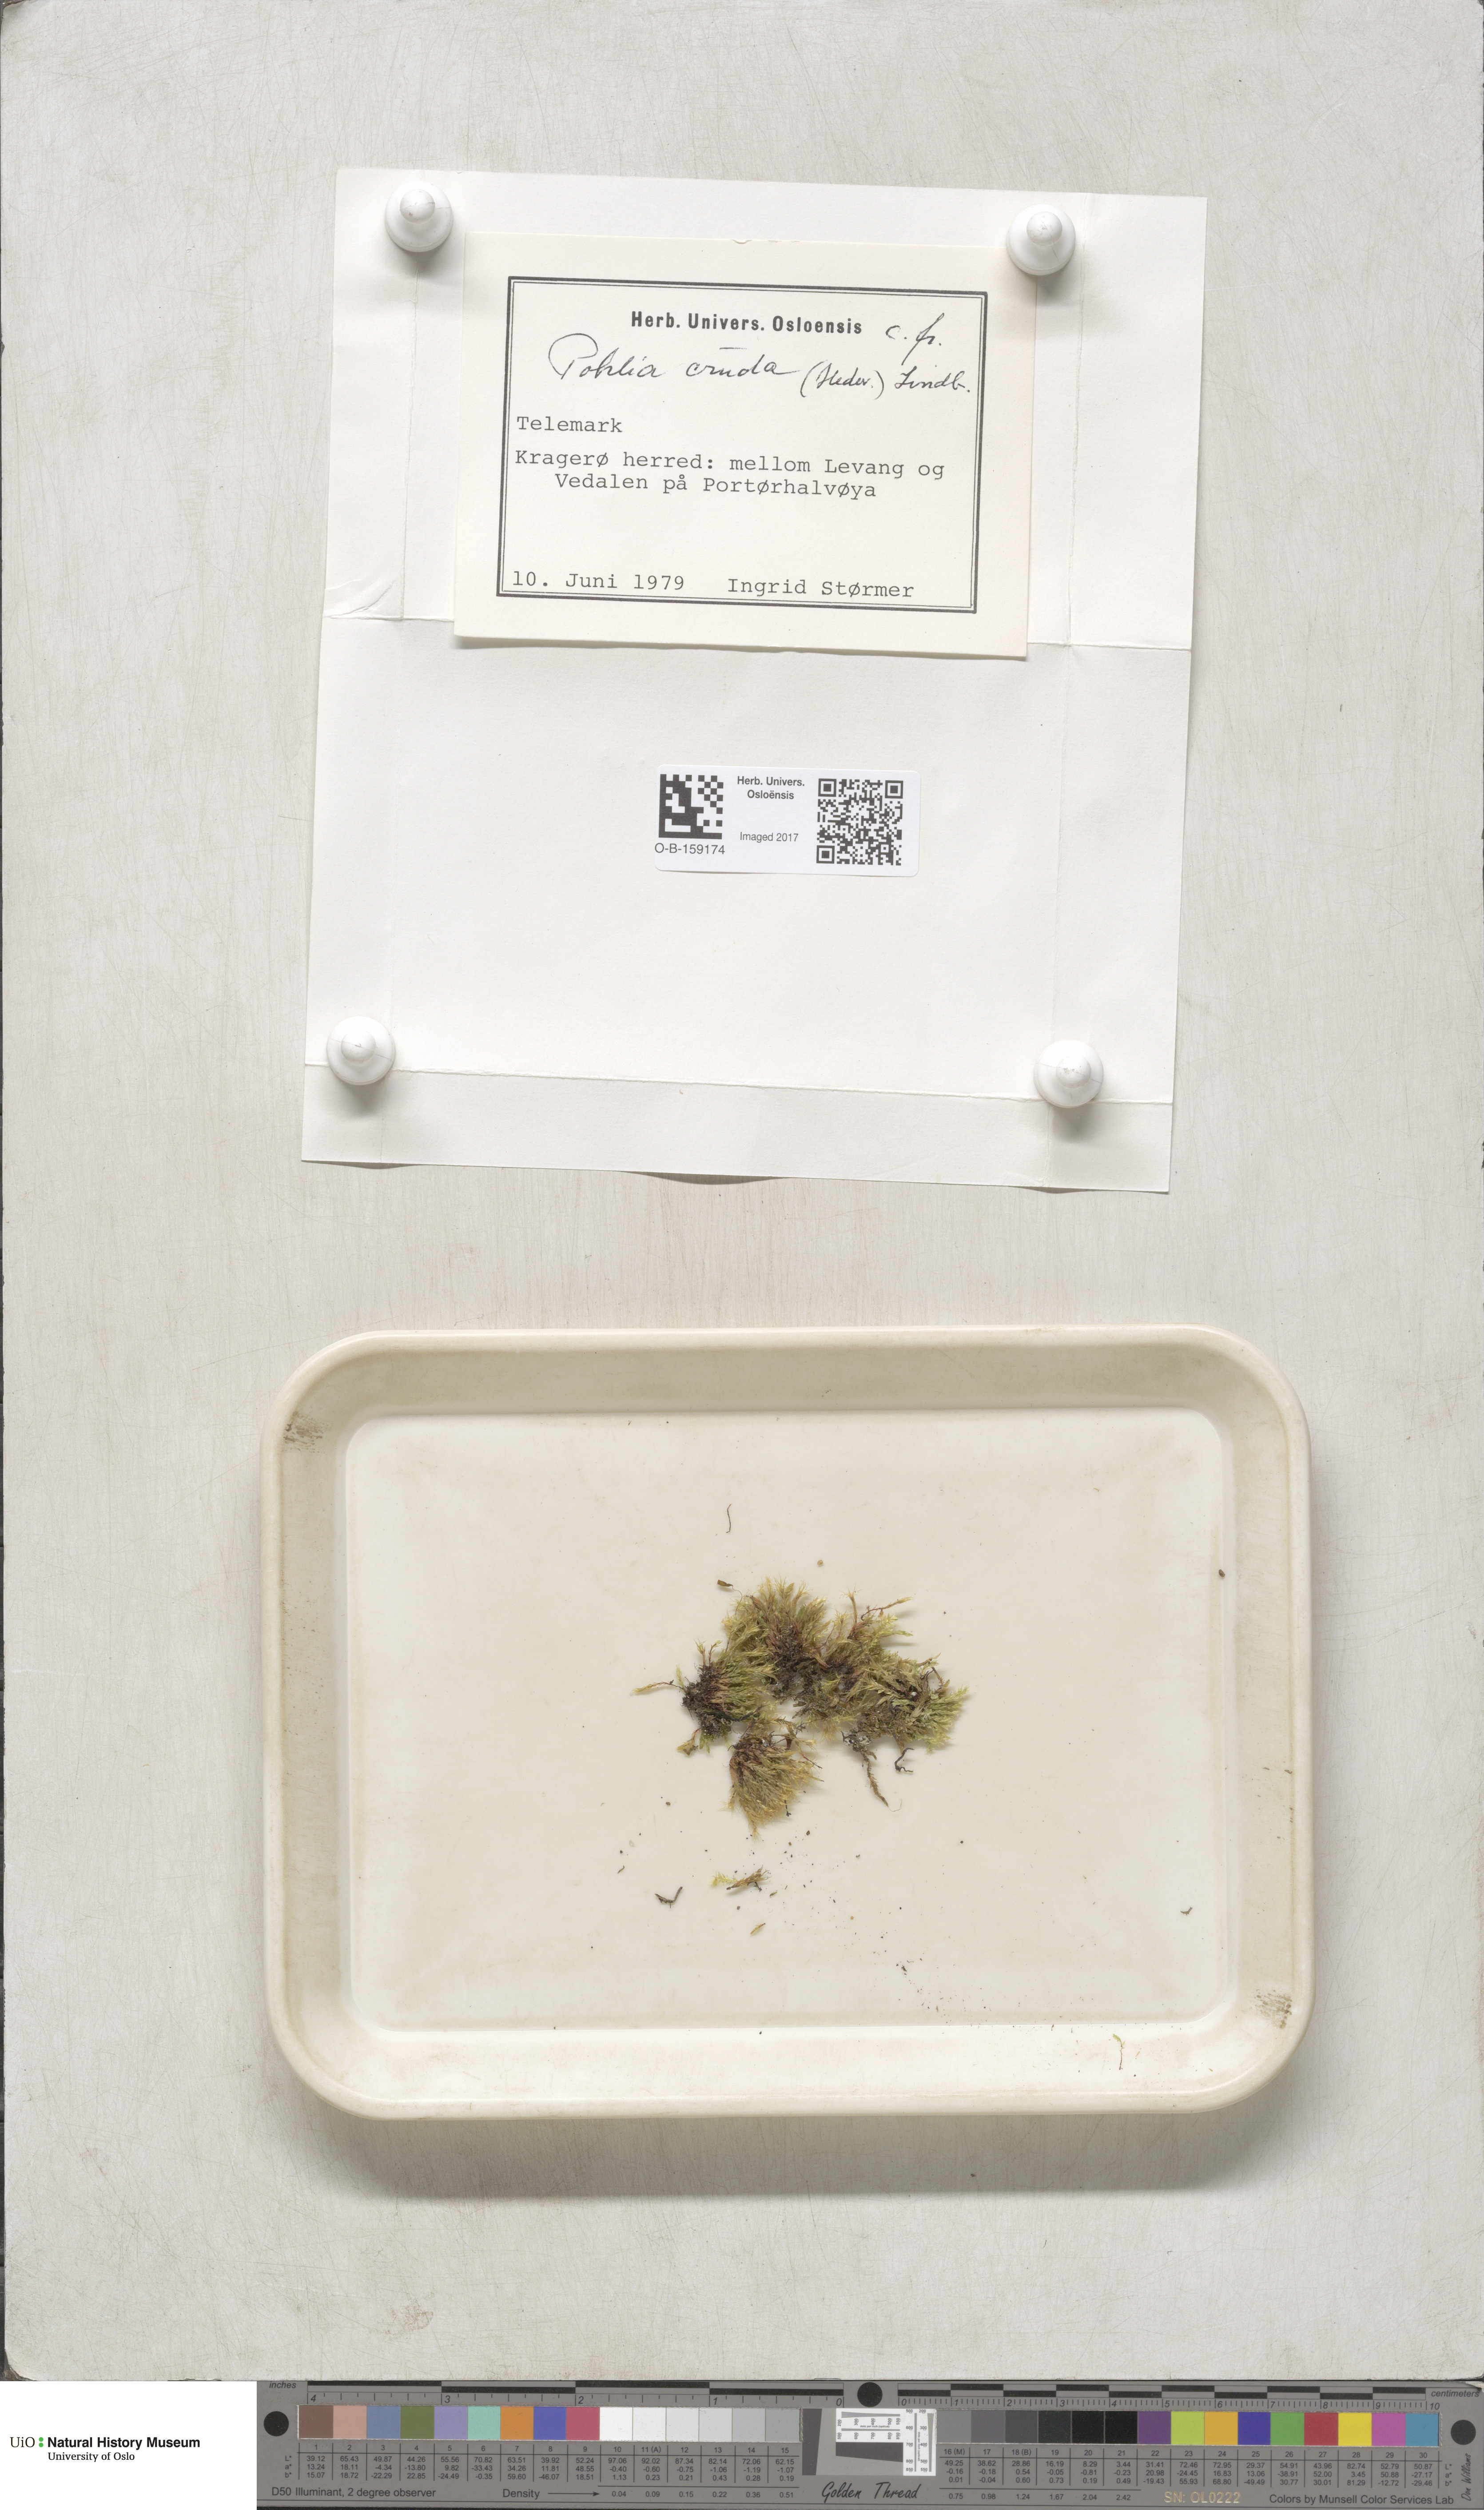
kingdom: Plantae
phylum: Bryophyta
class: Bryopsida
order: Bryales
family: Mniaceae
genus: Pohlia
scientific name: Pohlia cruda
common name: Opal nodding moss
